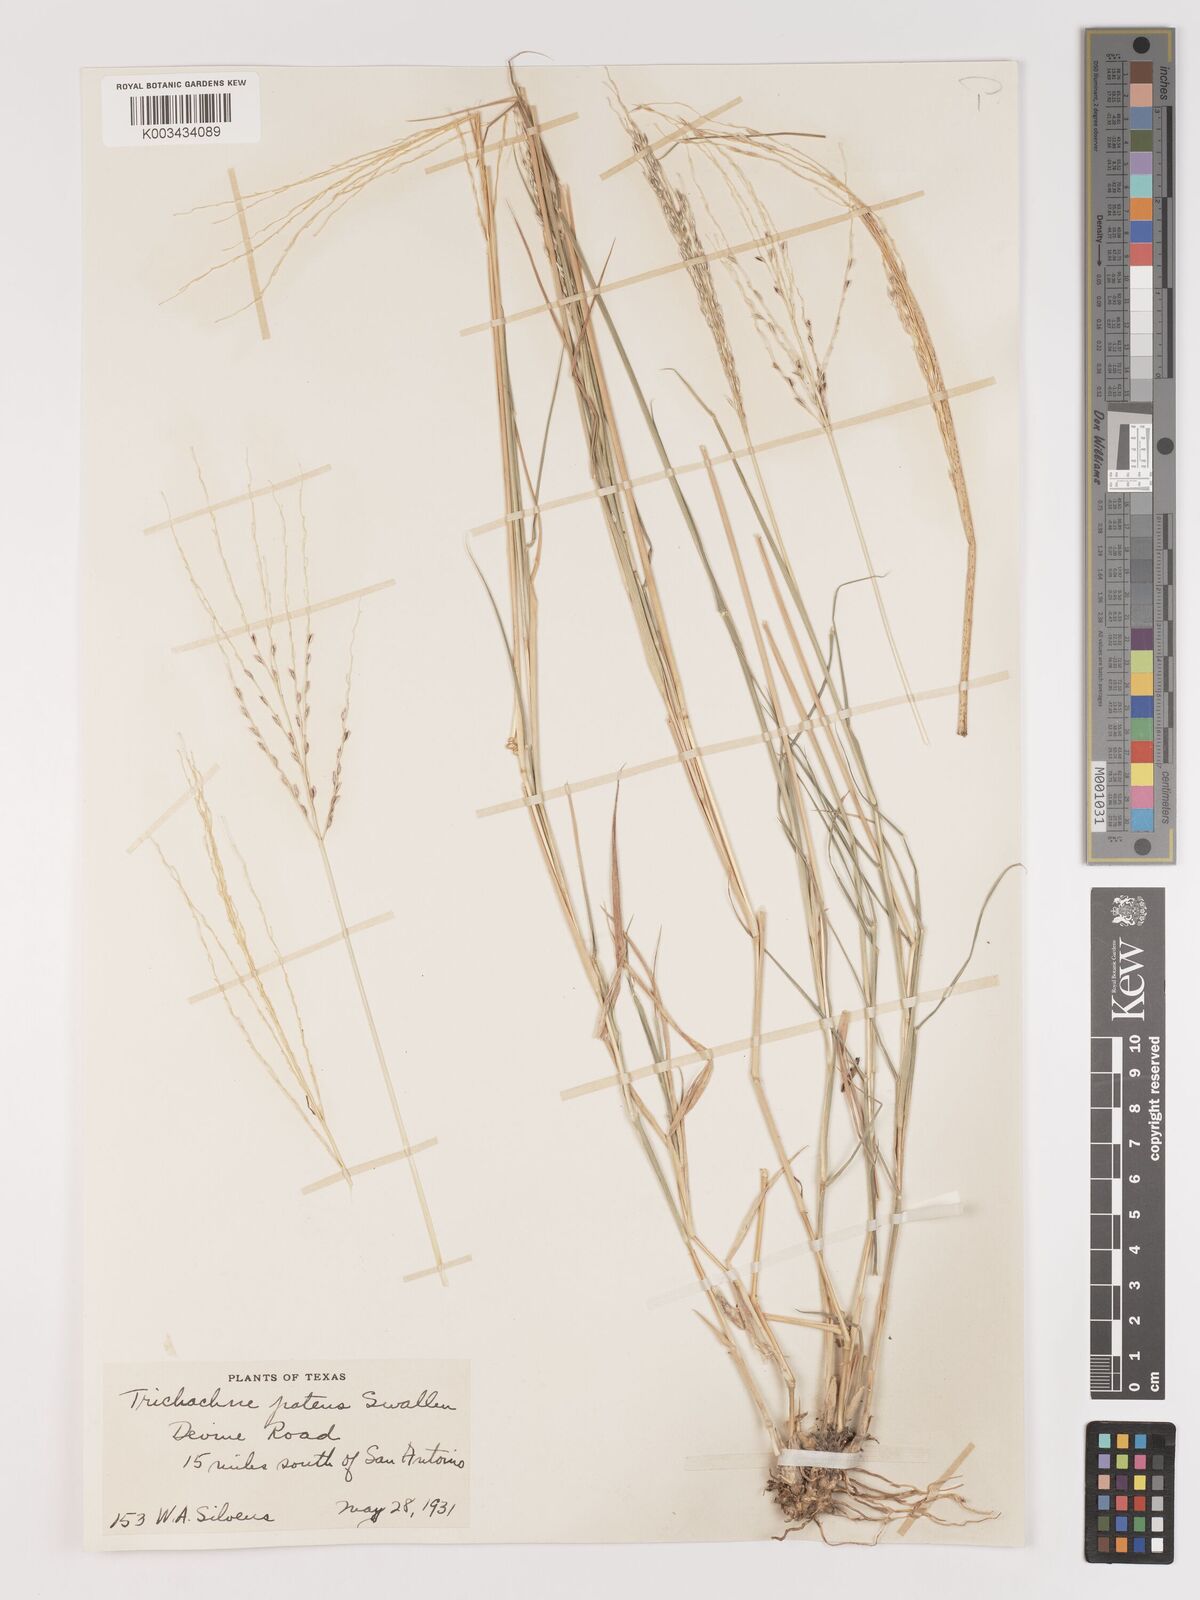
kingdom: Plantae
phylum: Tracheophyta
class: Liliopsida
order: Poales
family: Poaceae
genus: Digitaria
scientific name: Digitaria patens
